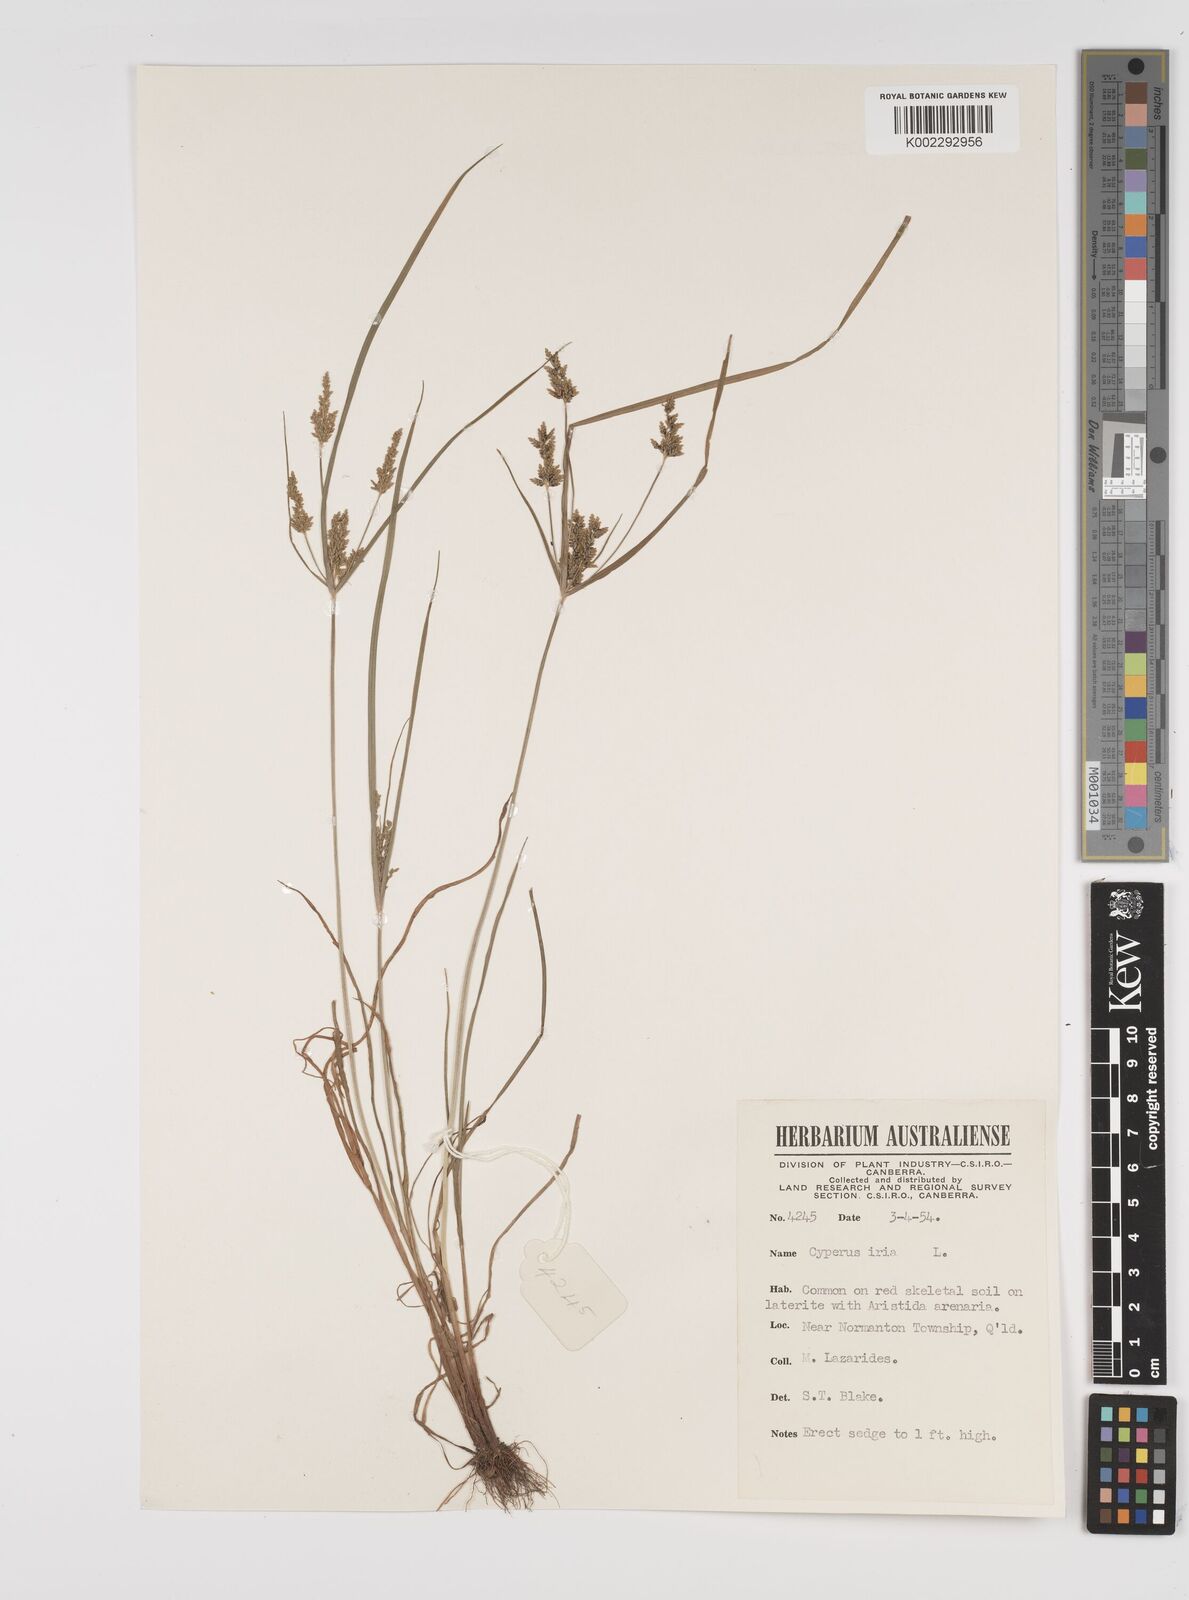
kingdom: Plantae
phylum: Tracheophyta
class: Liliopsida
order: Poales
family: Cyperaceae
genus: Cyperus
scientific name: Cyperus iria
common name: Ricefield flatsedge
